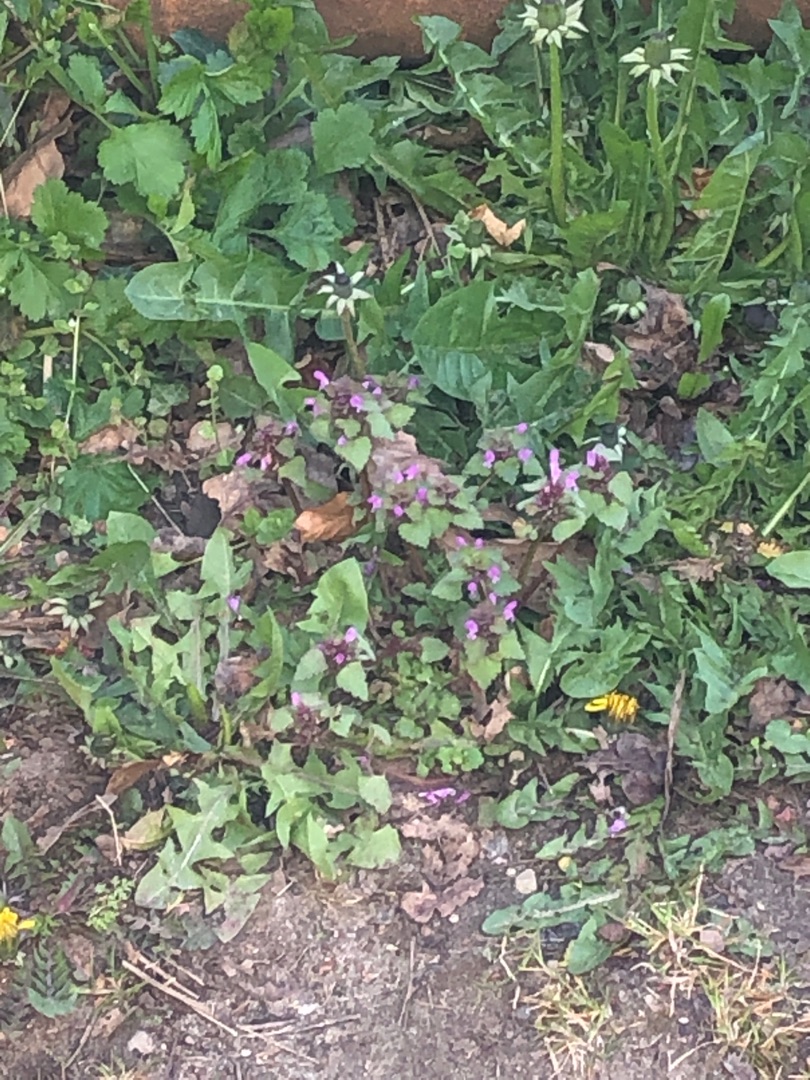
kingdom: Plantae
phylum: Tracheophyta
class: Magnoliopsida
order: Lamiales
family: Lamiaceae
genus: Lamium
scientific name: Lamium purpureum
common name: Rød tvetand
